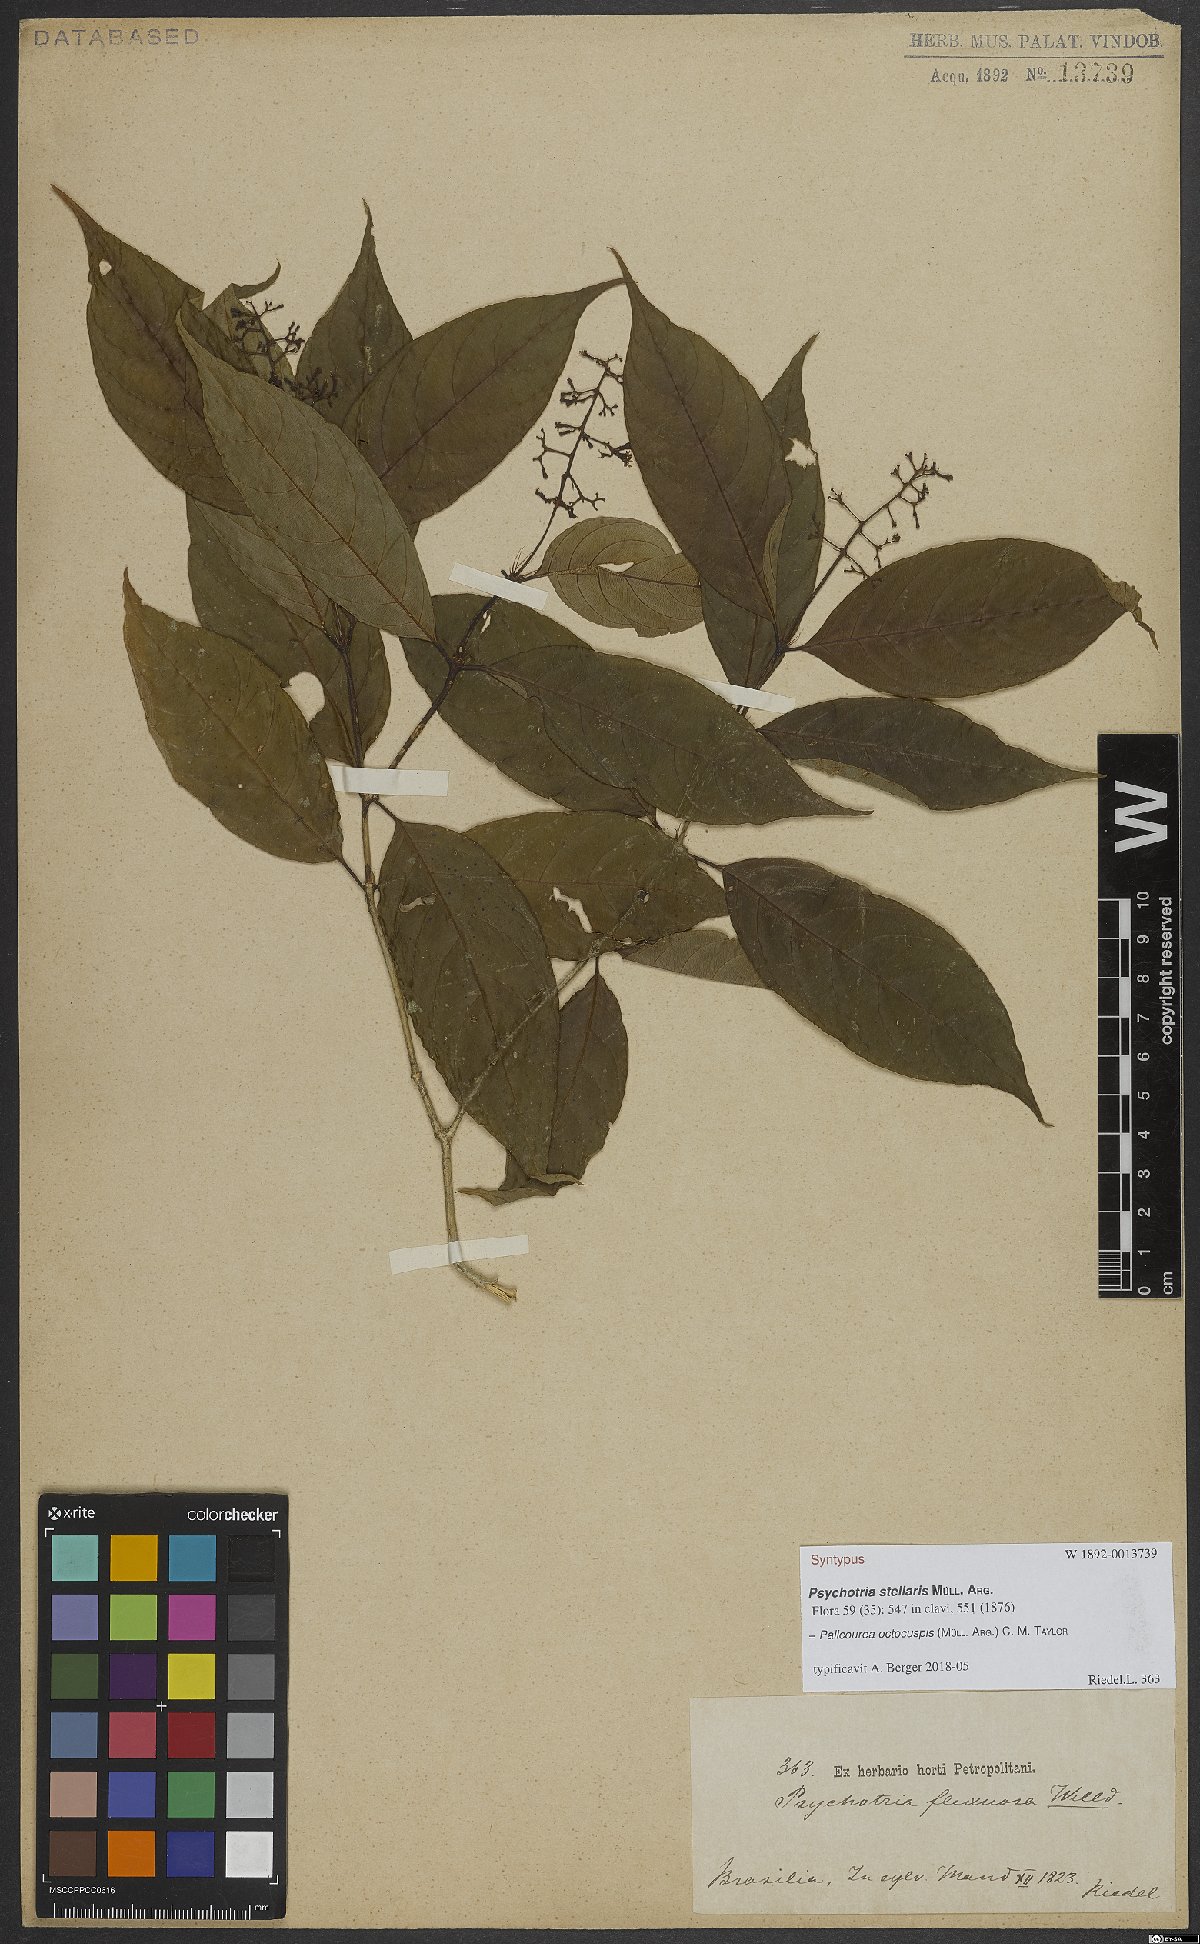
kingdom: Plantae
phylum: Tracheophyta
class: Magnoliopsida
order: Gentianales
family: Rubiaceae
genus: Palicourea
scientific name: Palicourea octocuspis
